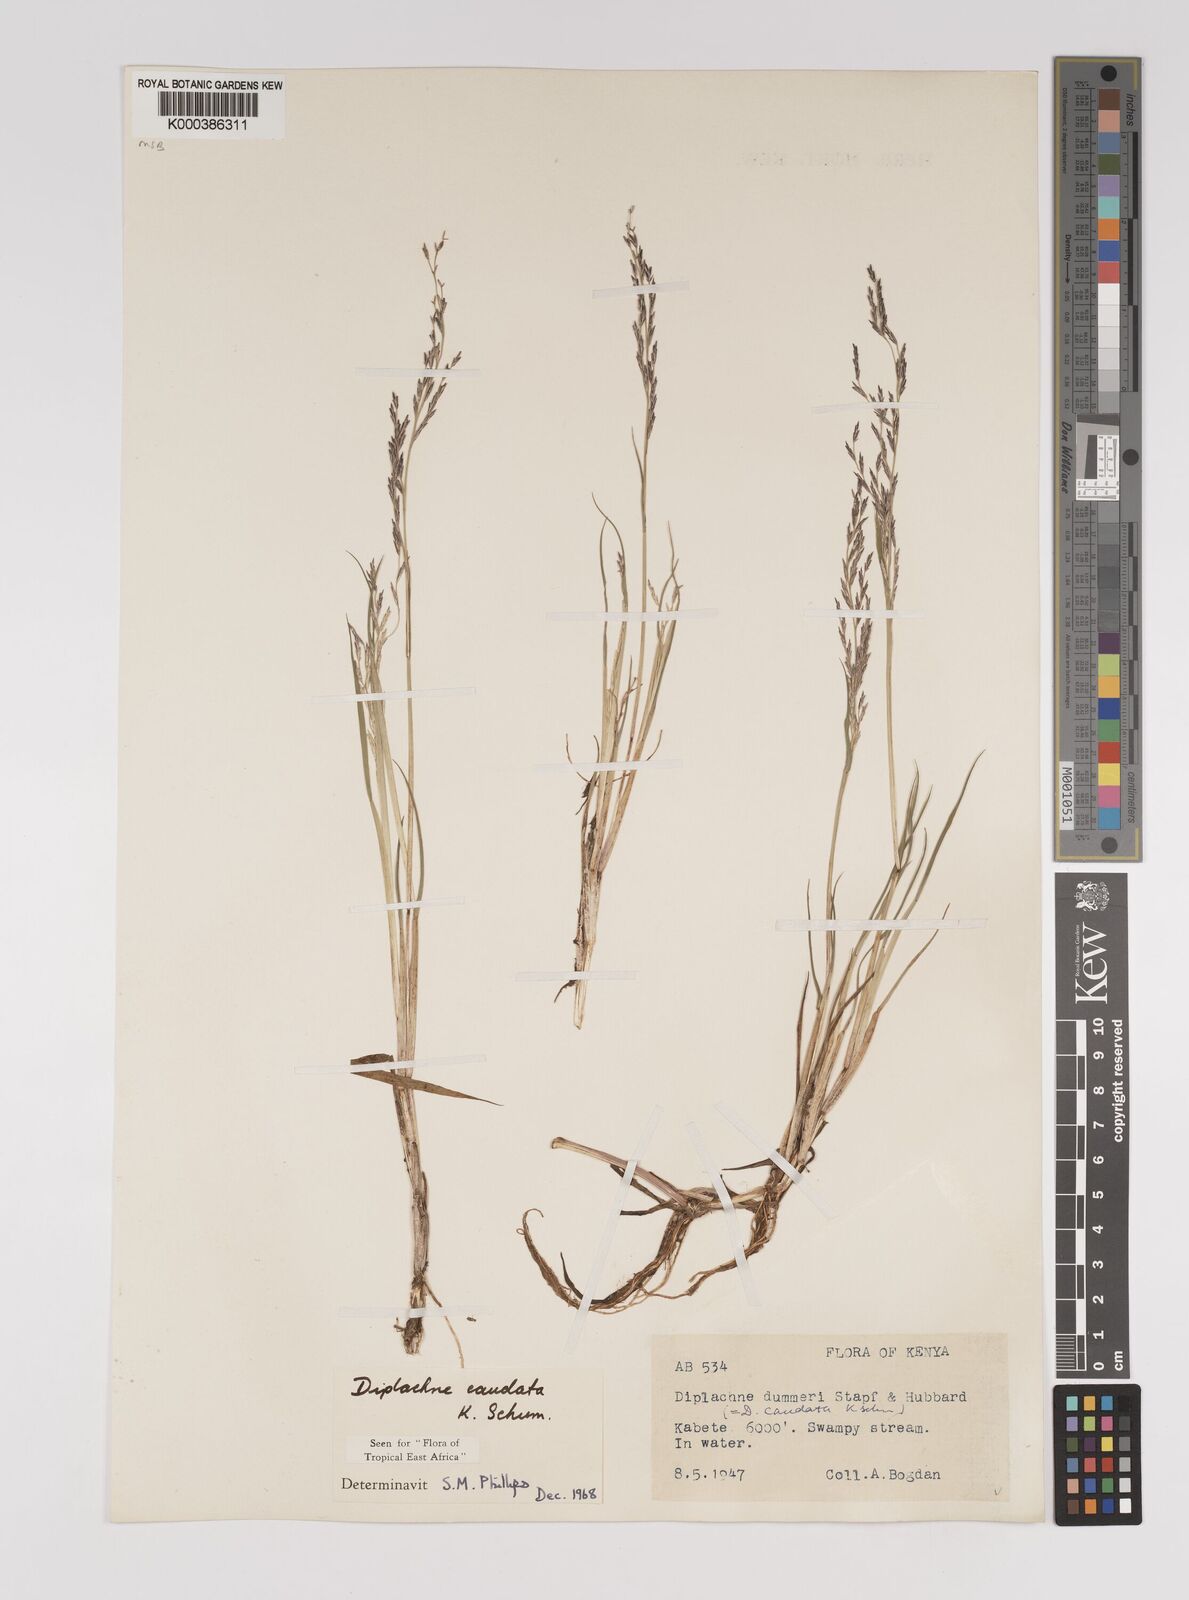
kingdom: Plantae
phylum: Tracheophyta
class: Liliopsida
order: Poales
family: Poaceae
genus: Leptochloa
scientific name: Leptochloa caudata
